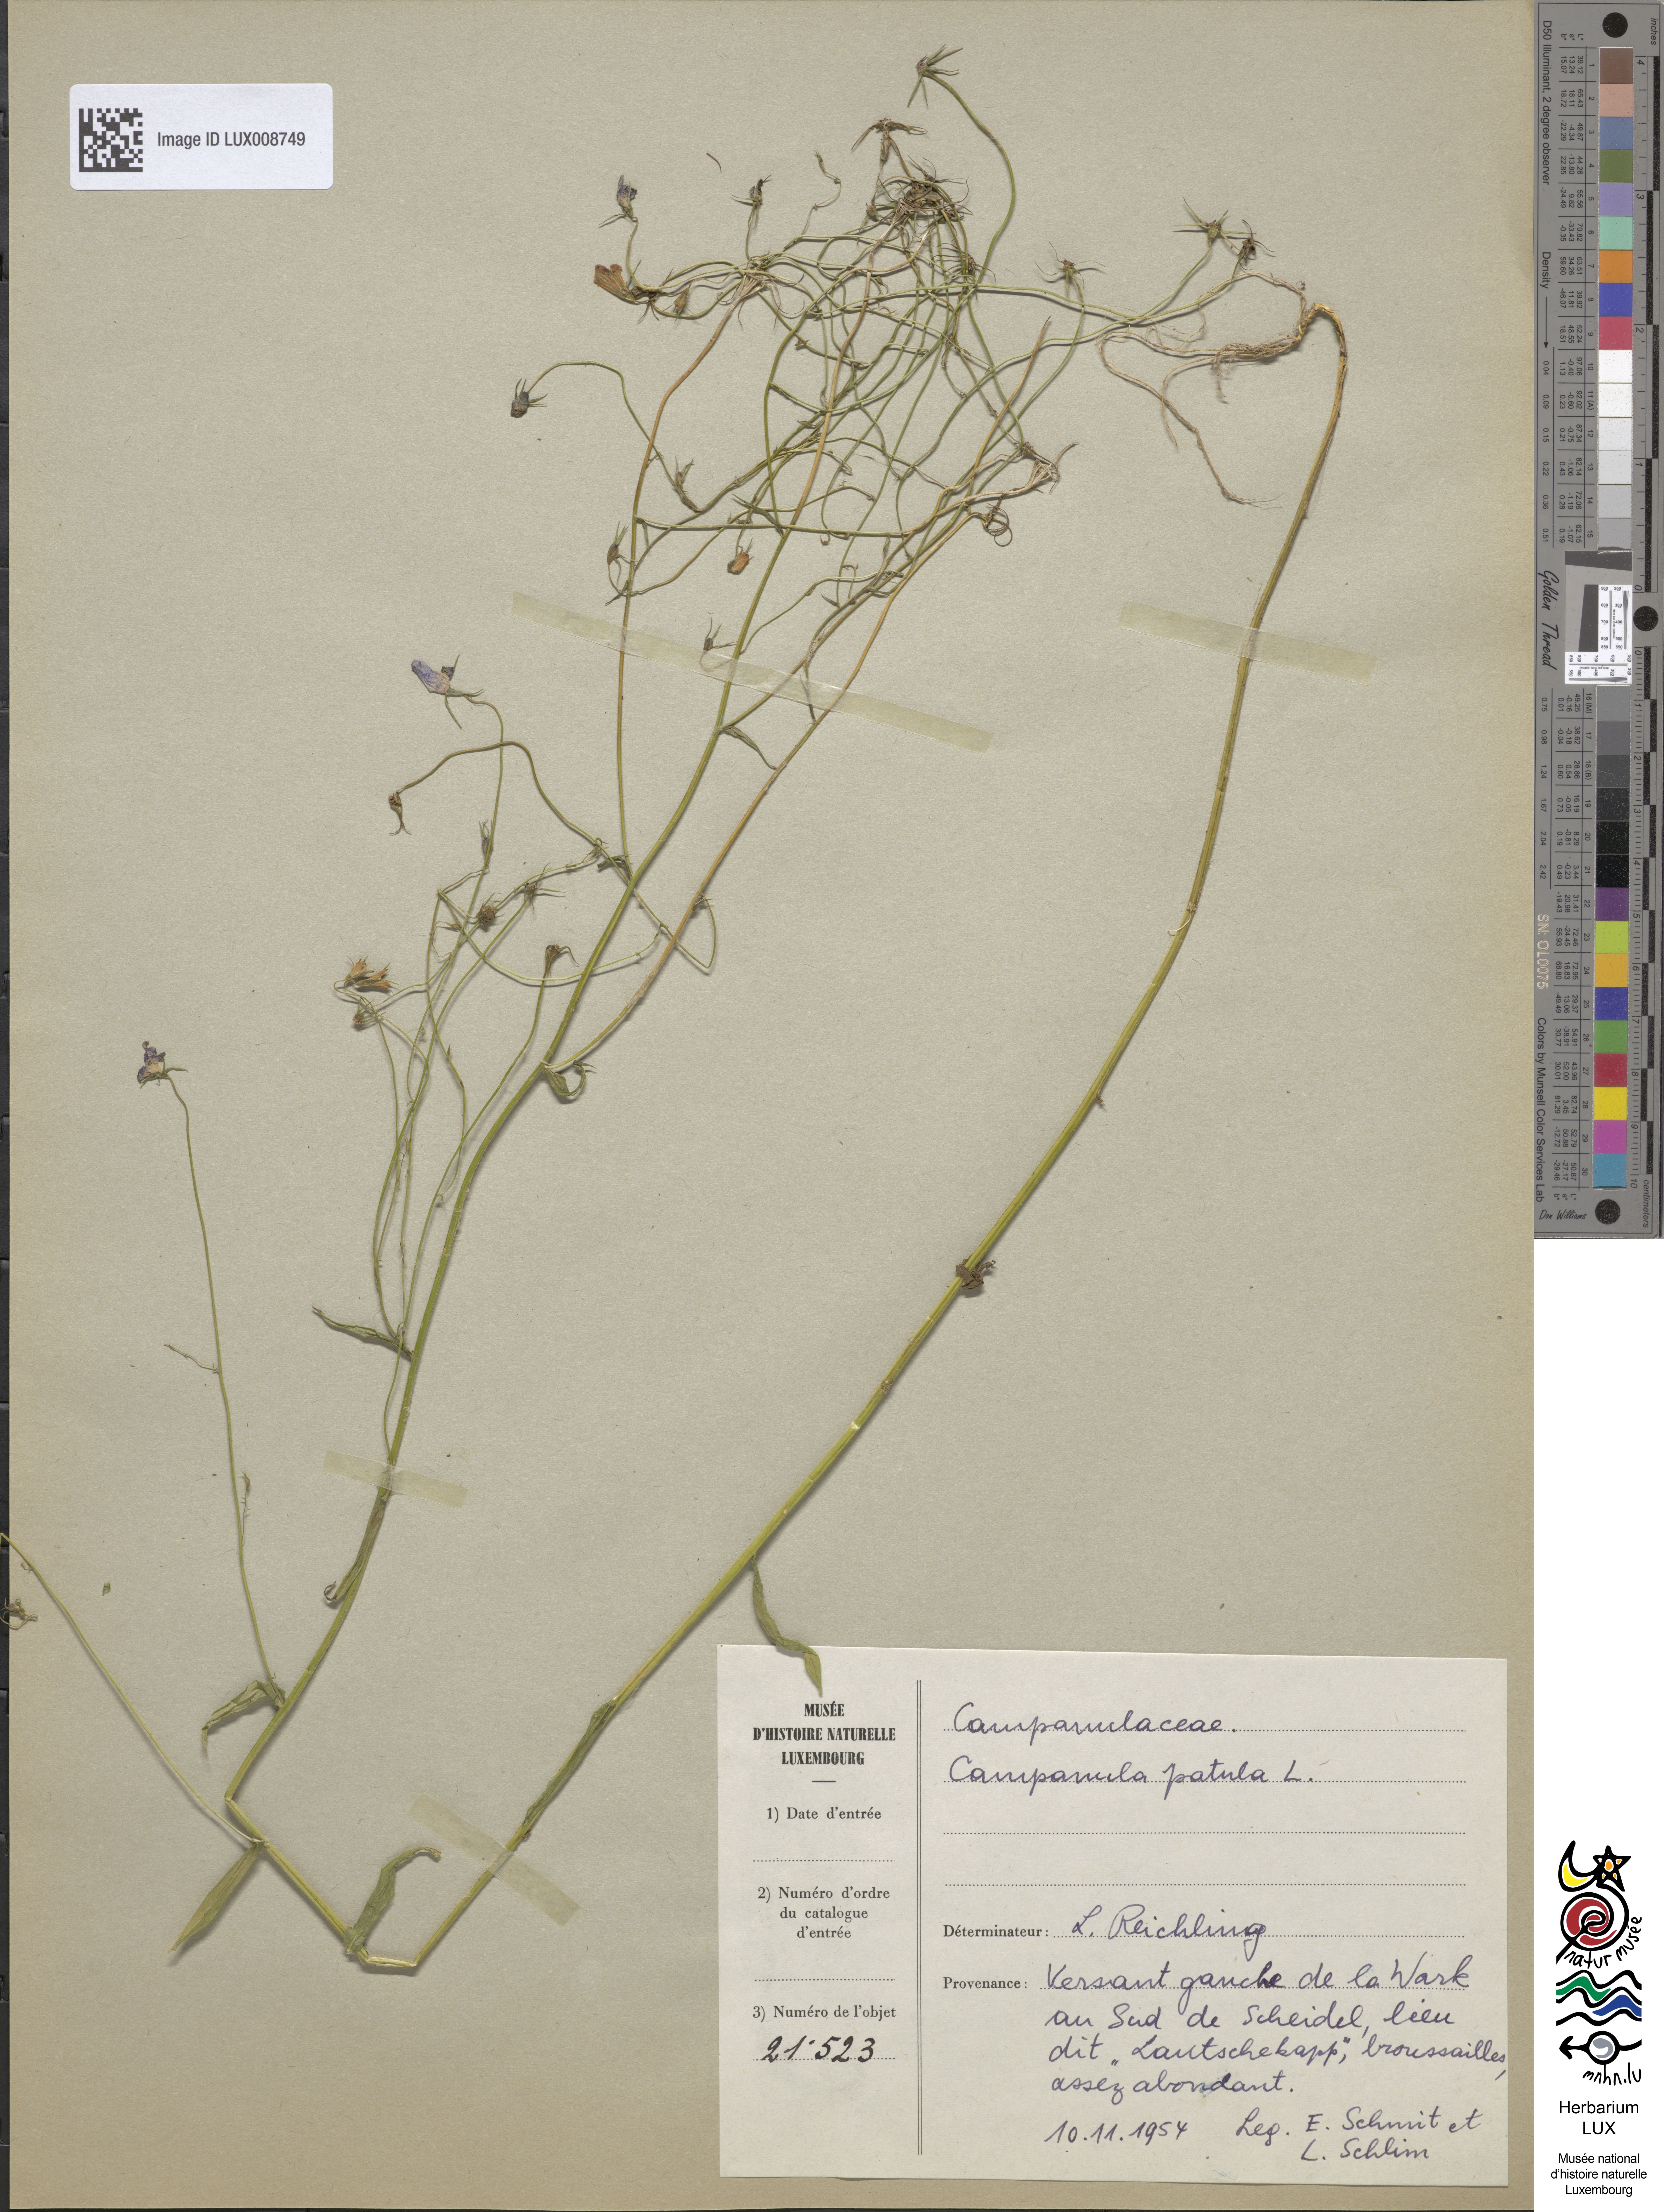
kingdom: Plantae
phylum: Tracheophyta
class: Magnoliopsida
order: Asterales
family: Campanulaceae
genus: Campanula
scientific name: Campanula patula
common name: Spreading bellflower
